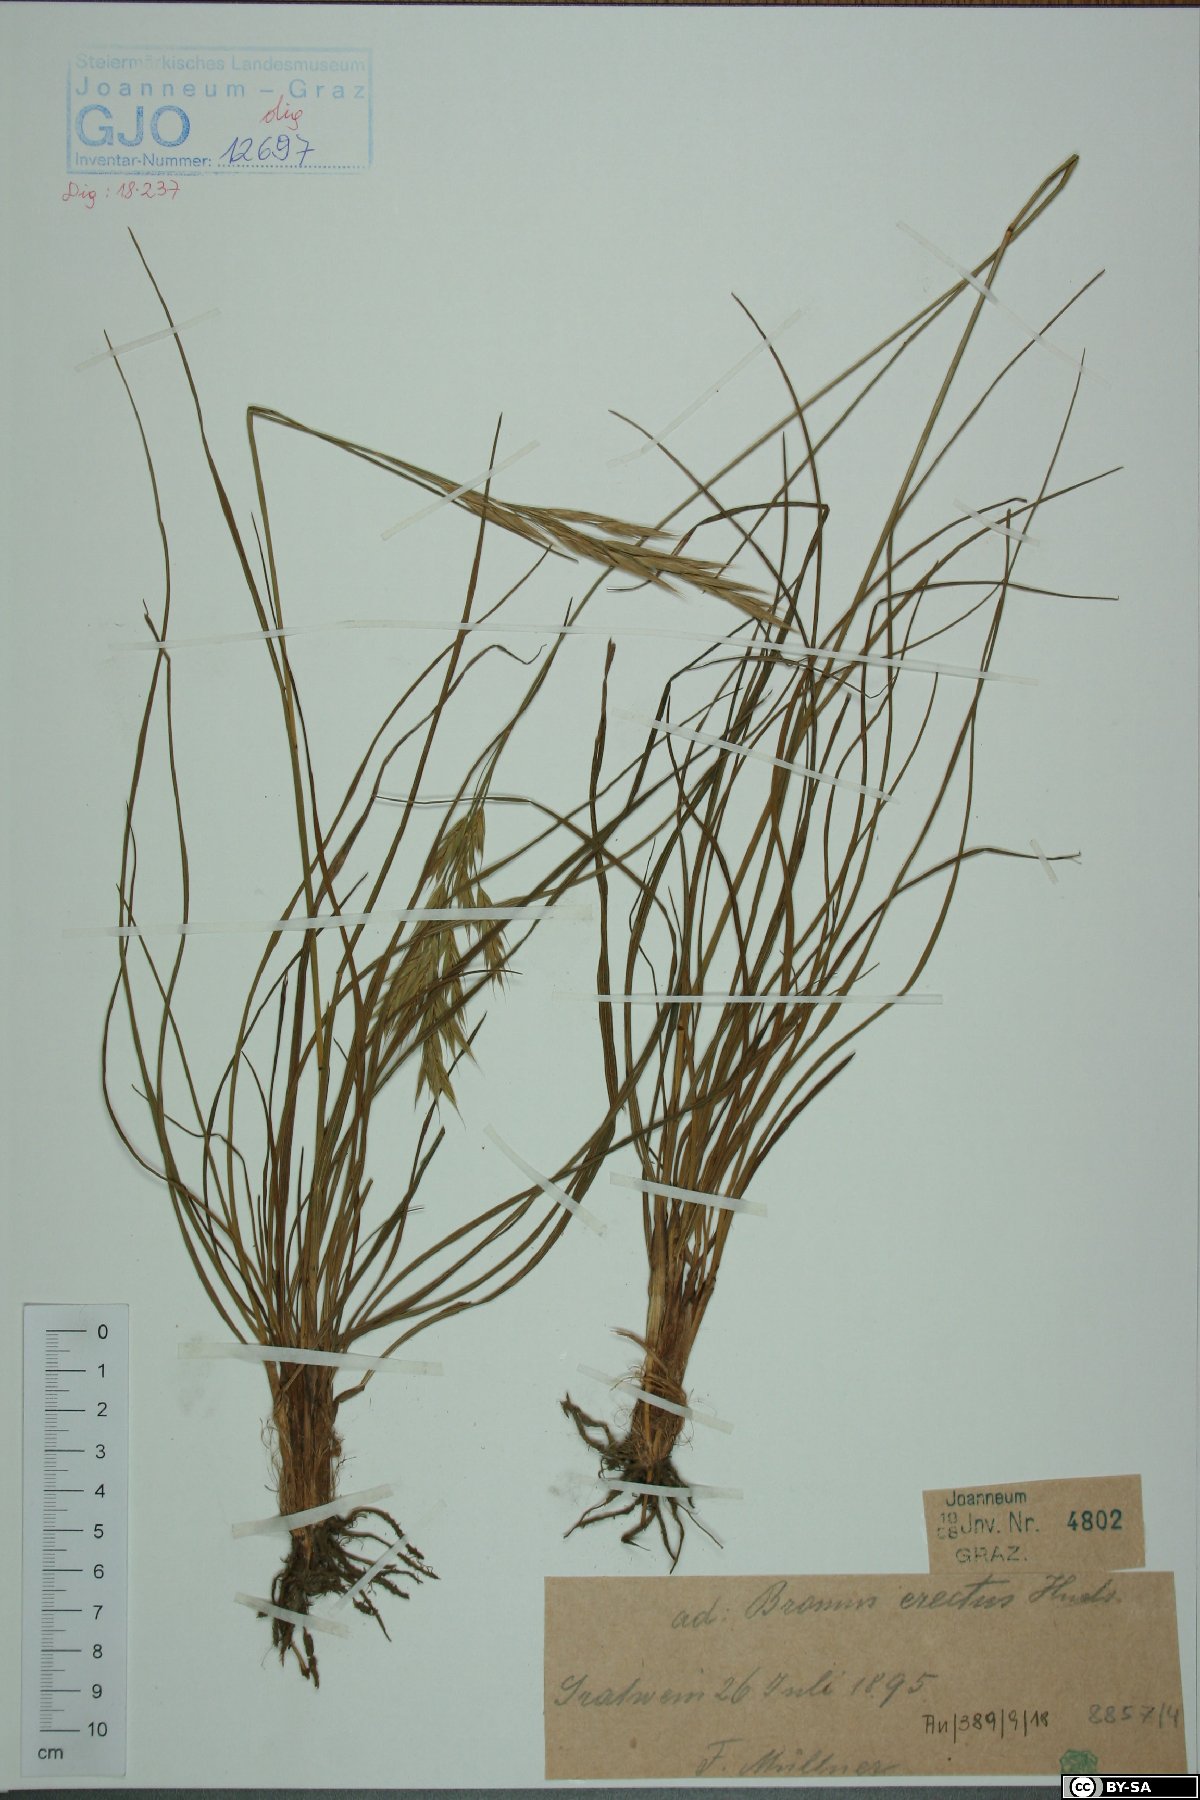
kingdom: Plantae
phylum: Tracheophyta
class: Liliopsida
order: Poales
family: Poaceae
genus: Bromus
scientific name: Bromus erectus
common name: Erect brome
